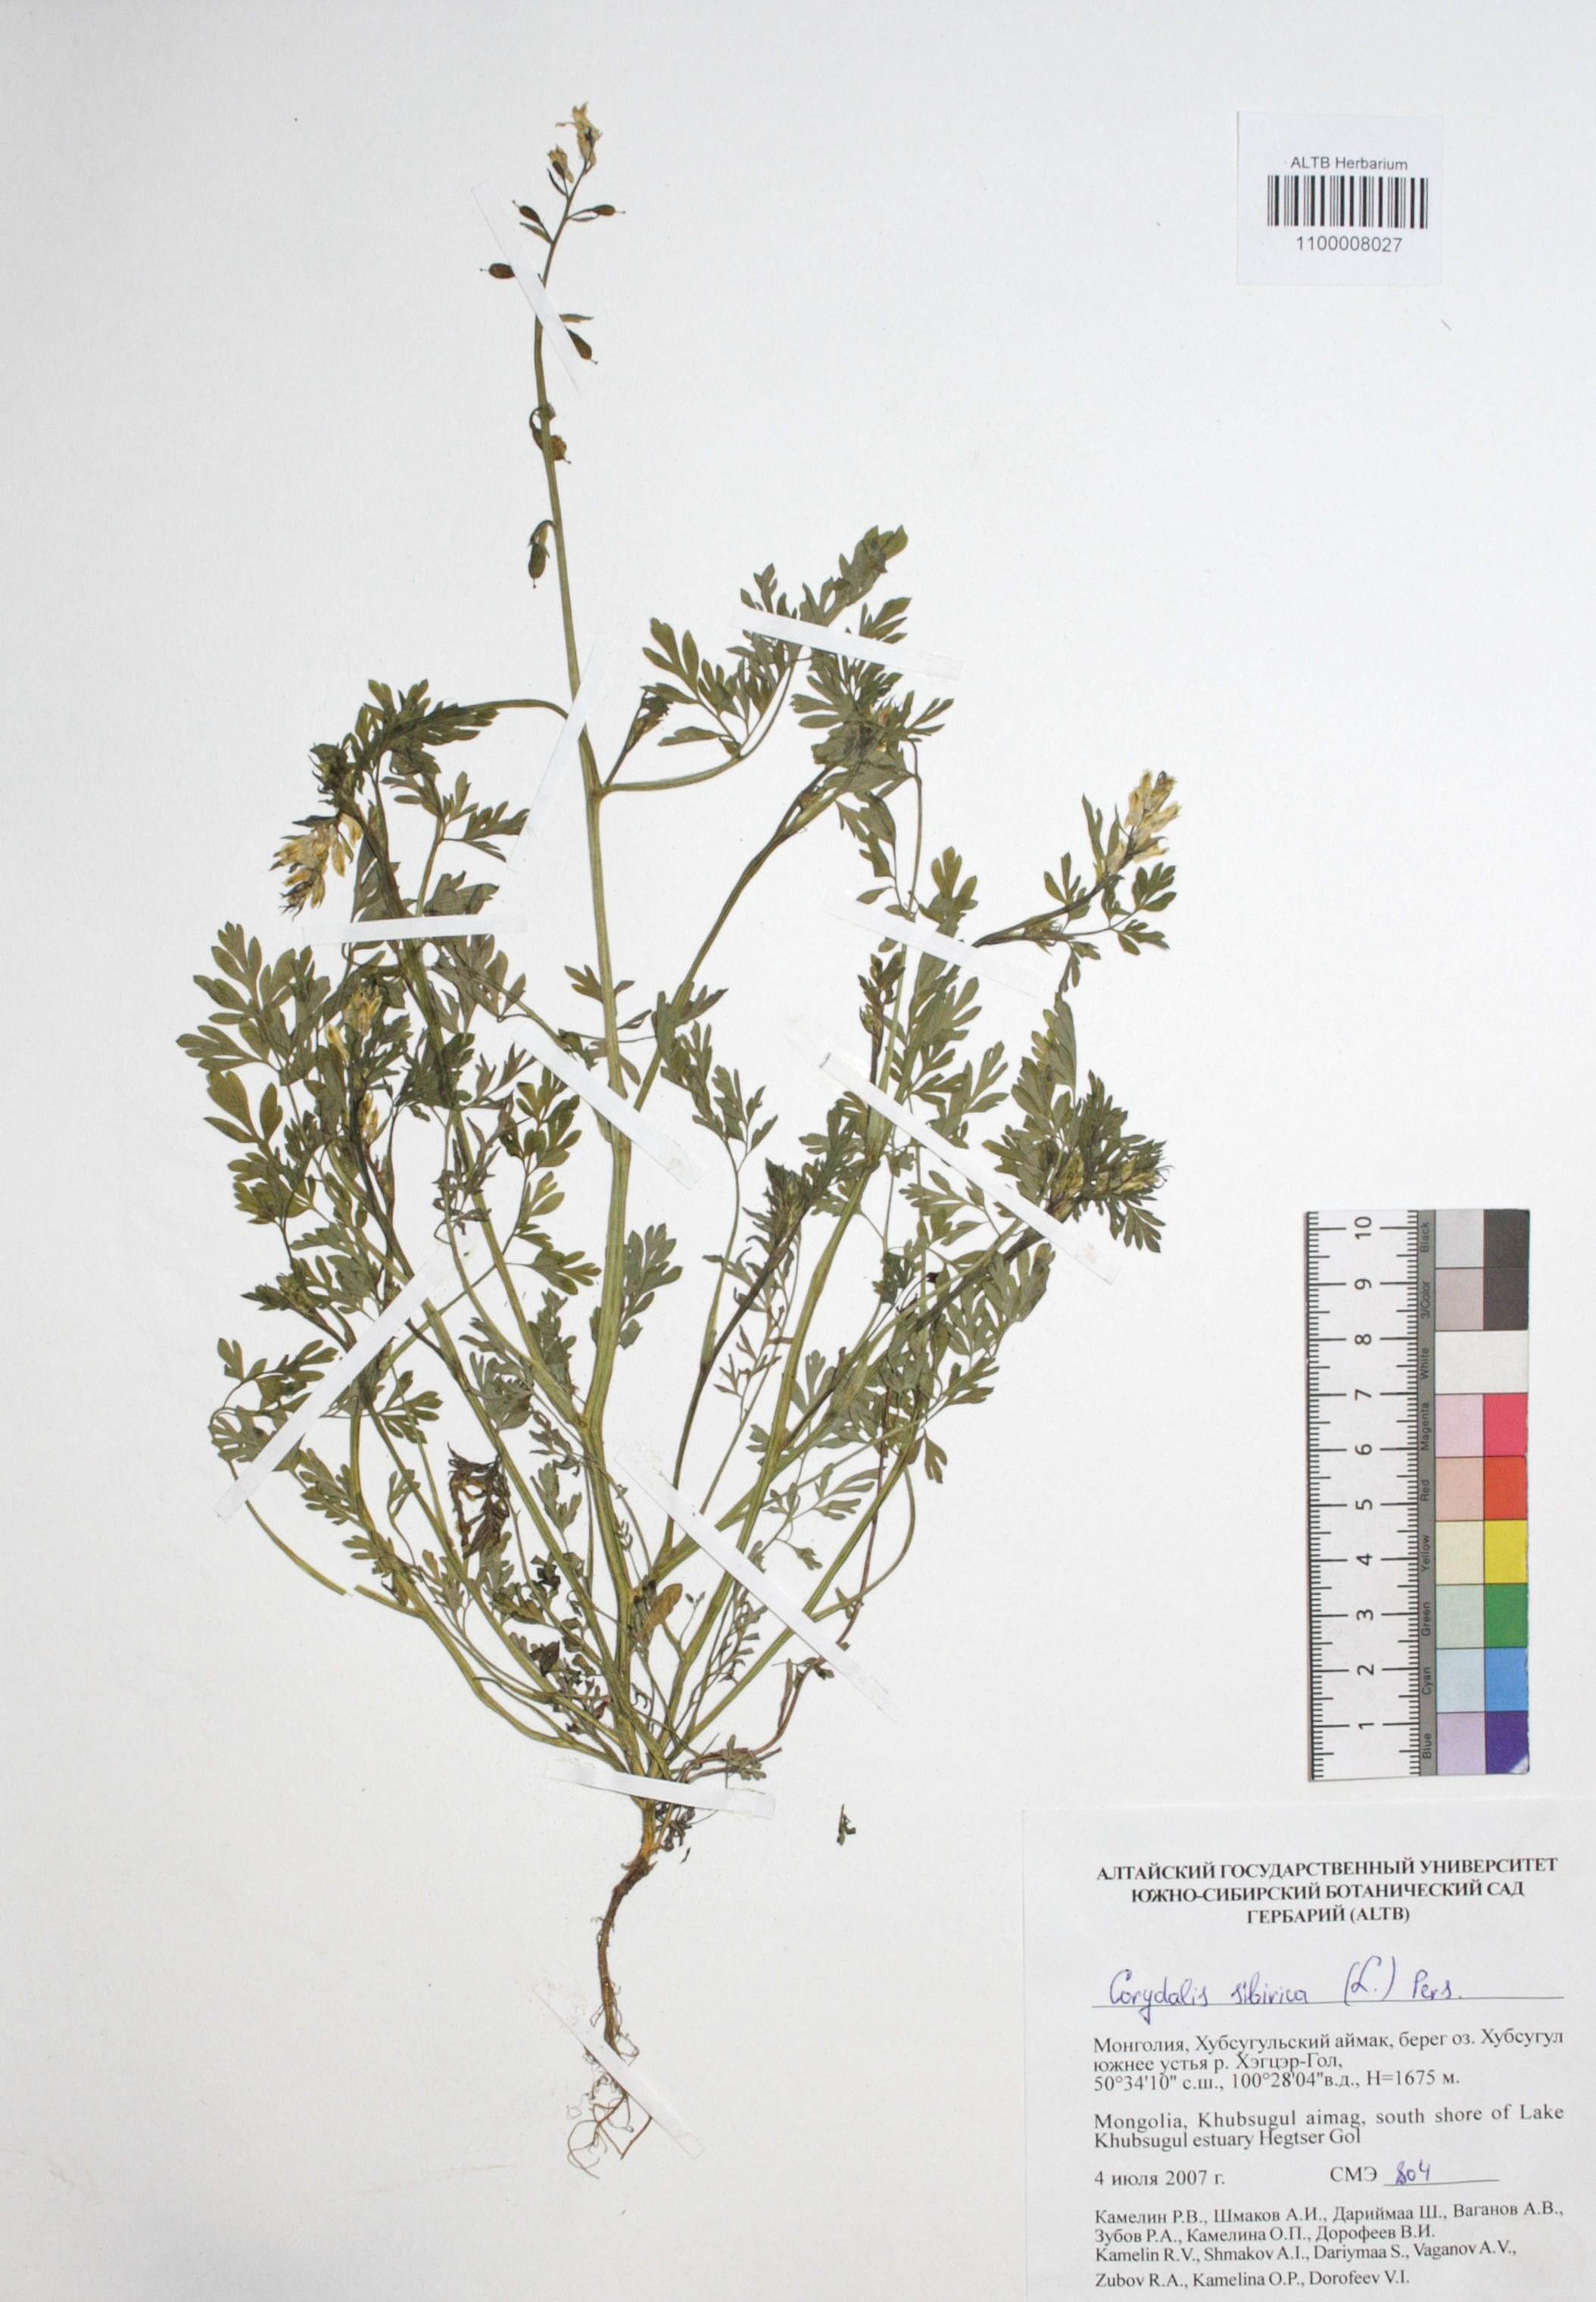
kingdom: Plantae
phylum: Tracheophyta
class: Magnoliopsida
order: Ranunculales
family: Papaveraceae
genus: Corydalis
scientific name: Corydalis sibirica
